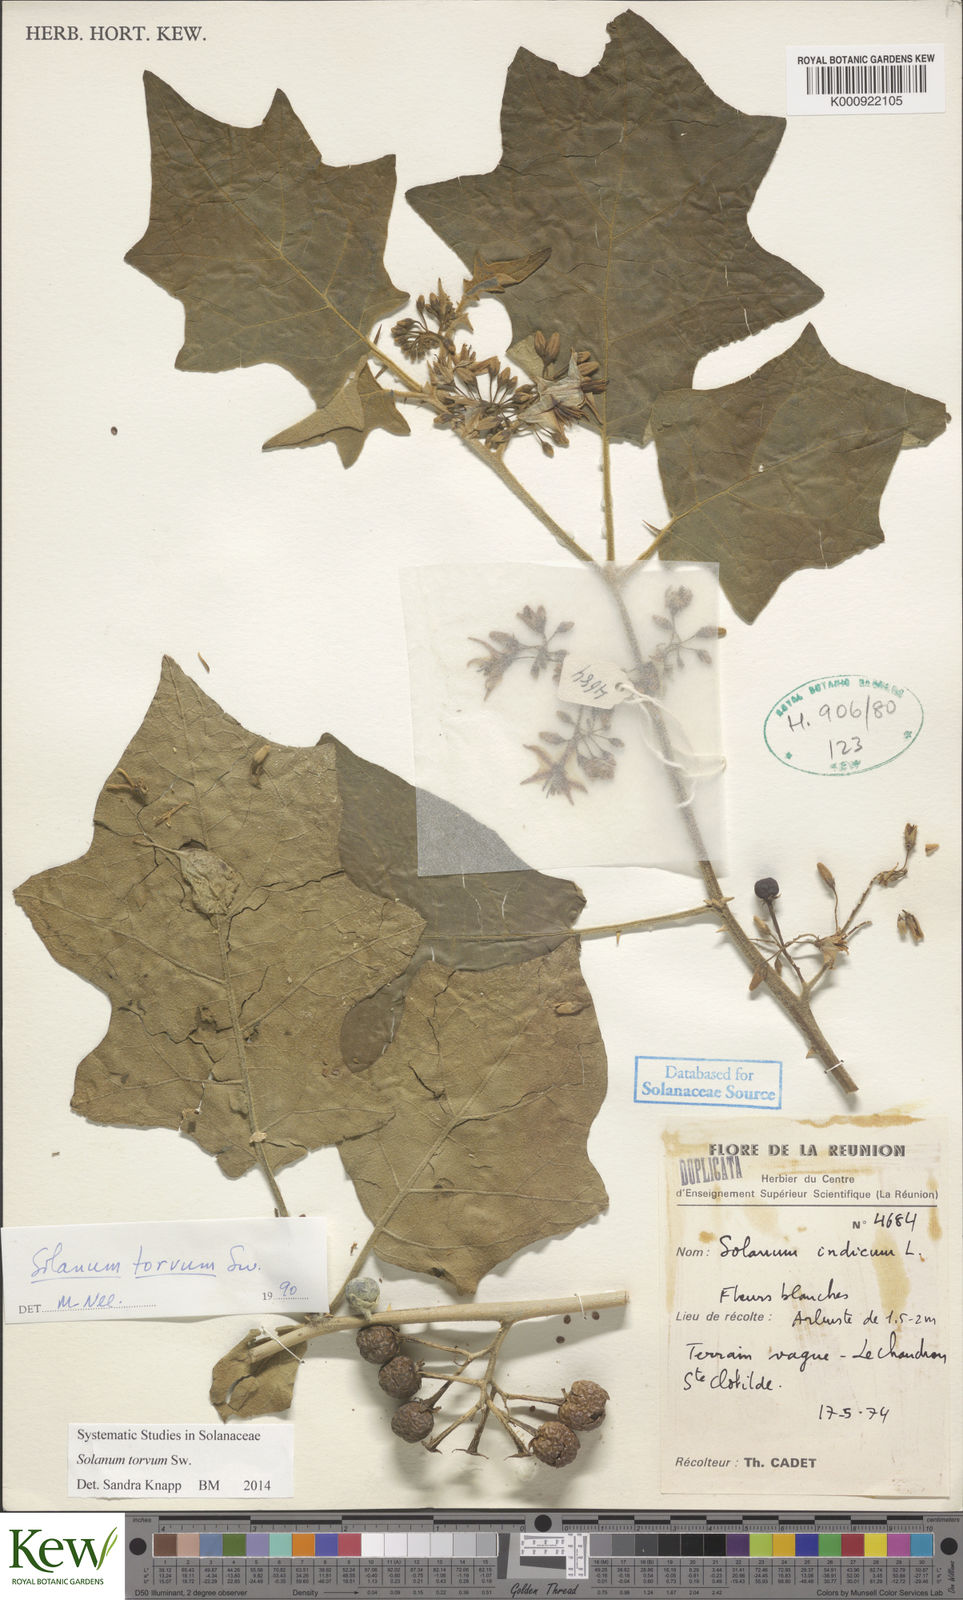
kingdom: Plantae
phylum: Tracheophyta
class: Magnoliopsida
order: Solanales
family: Solanaceae
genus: Solanum
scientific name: Solanum torvum
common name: Turkey berry
